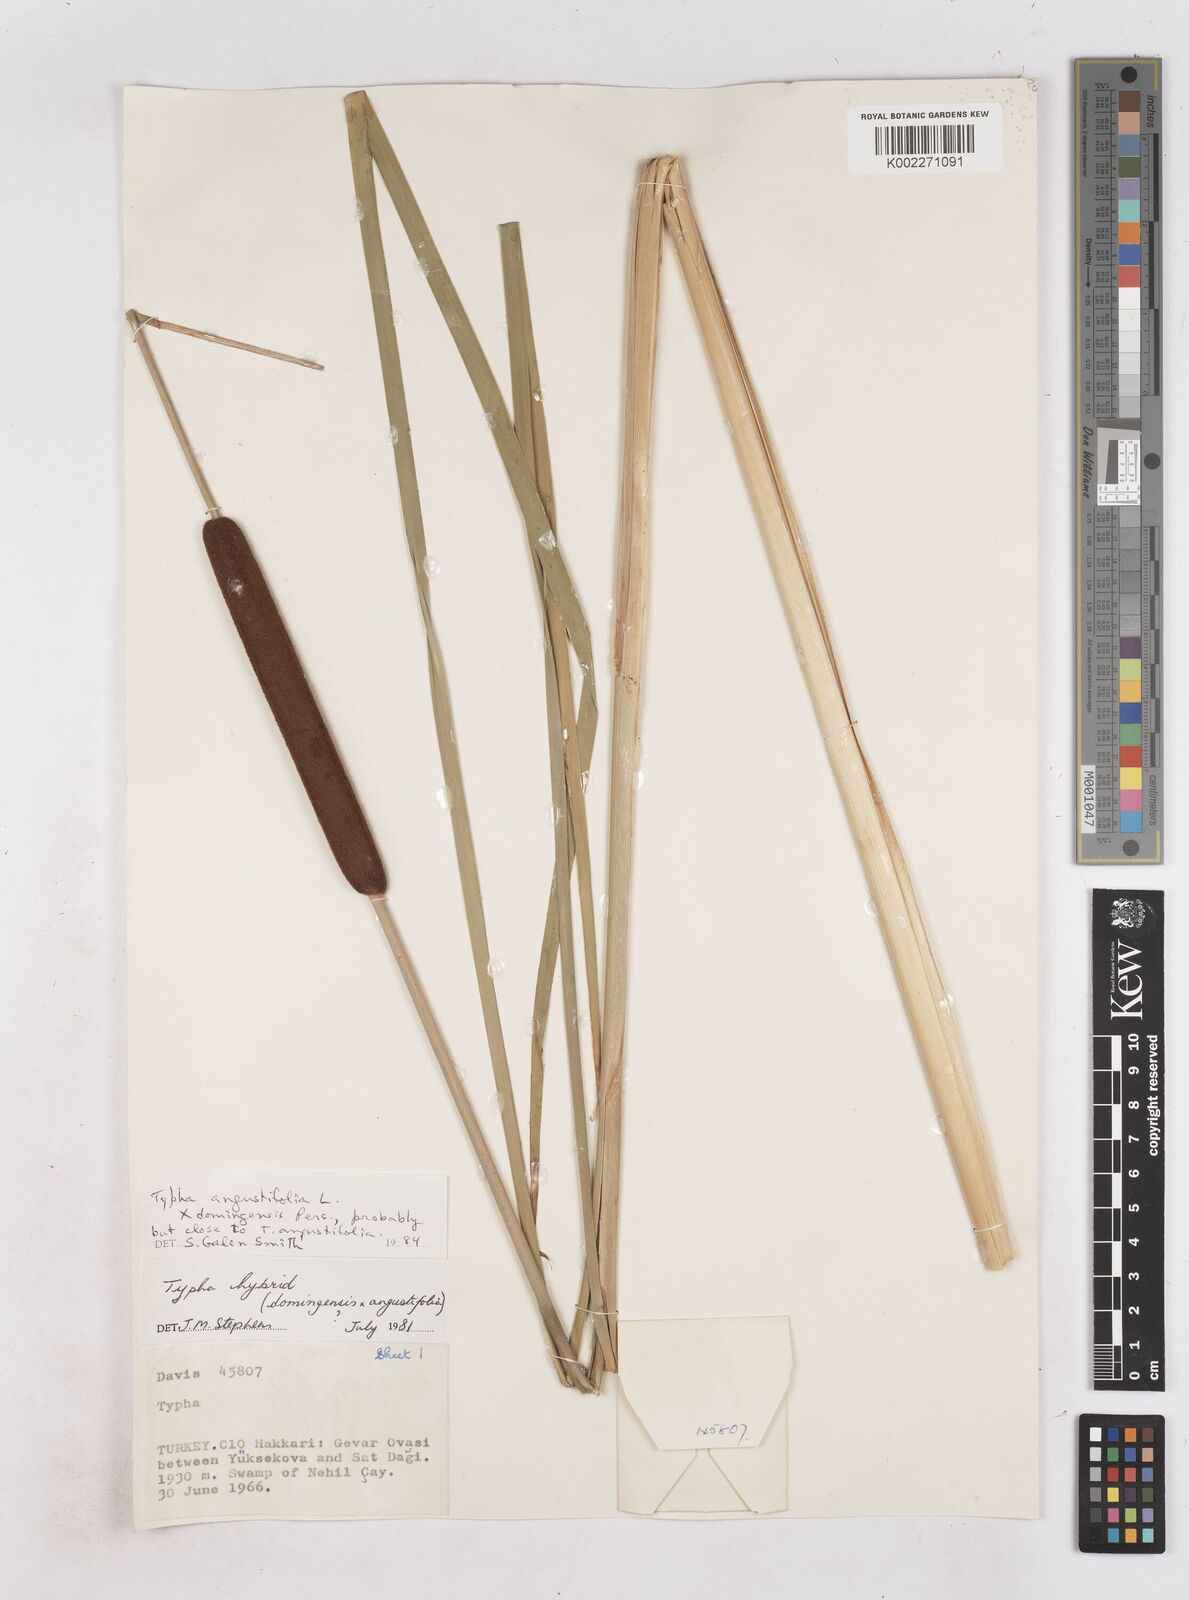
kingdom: Plantae
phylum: Tracheophyta
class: Liliopsida
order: Poales
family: Typhaceae
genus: Typha
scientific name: Typha
